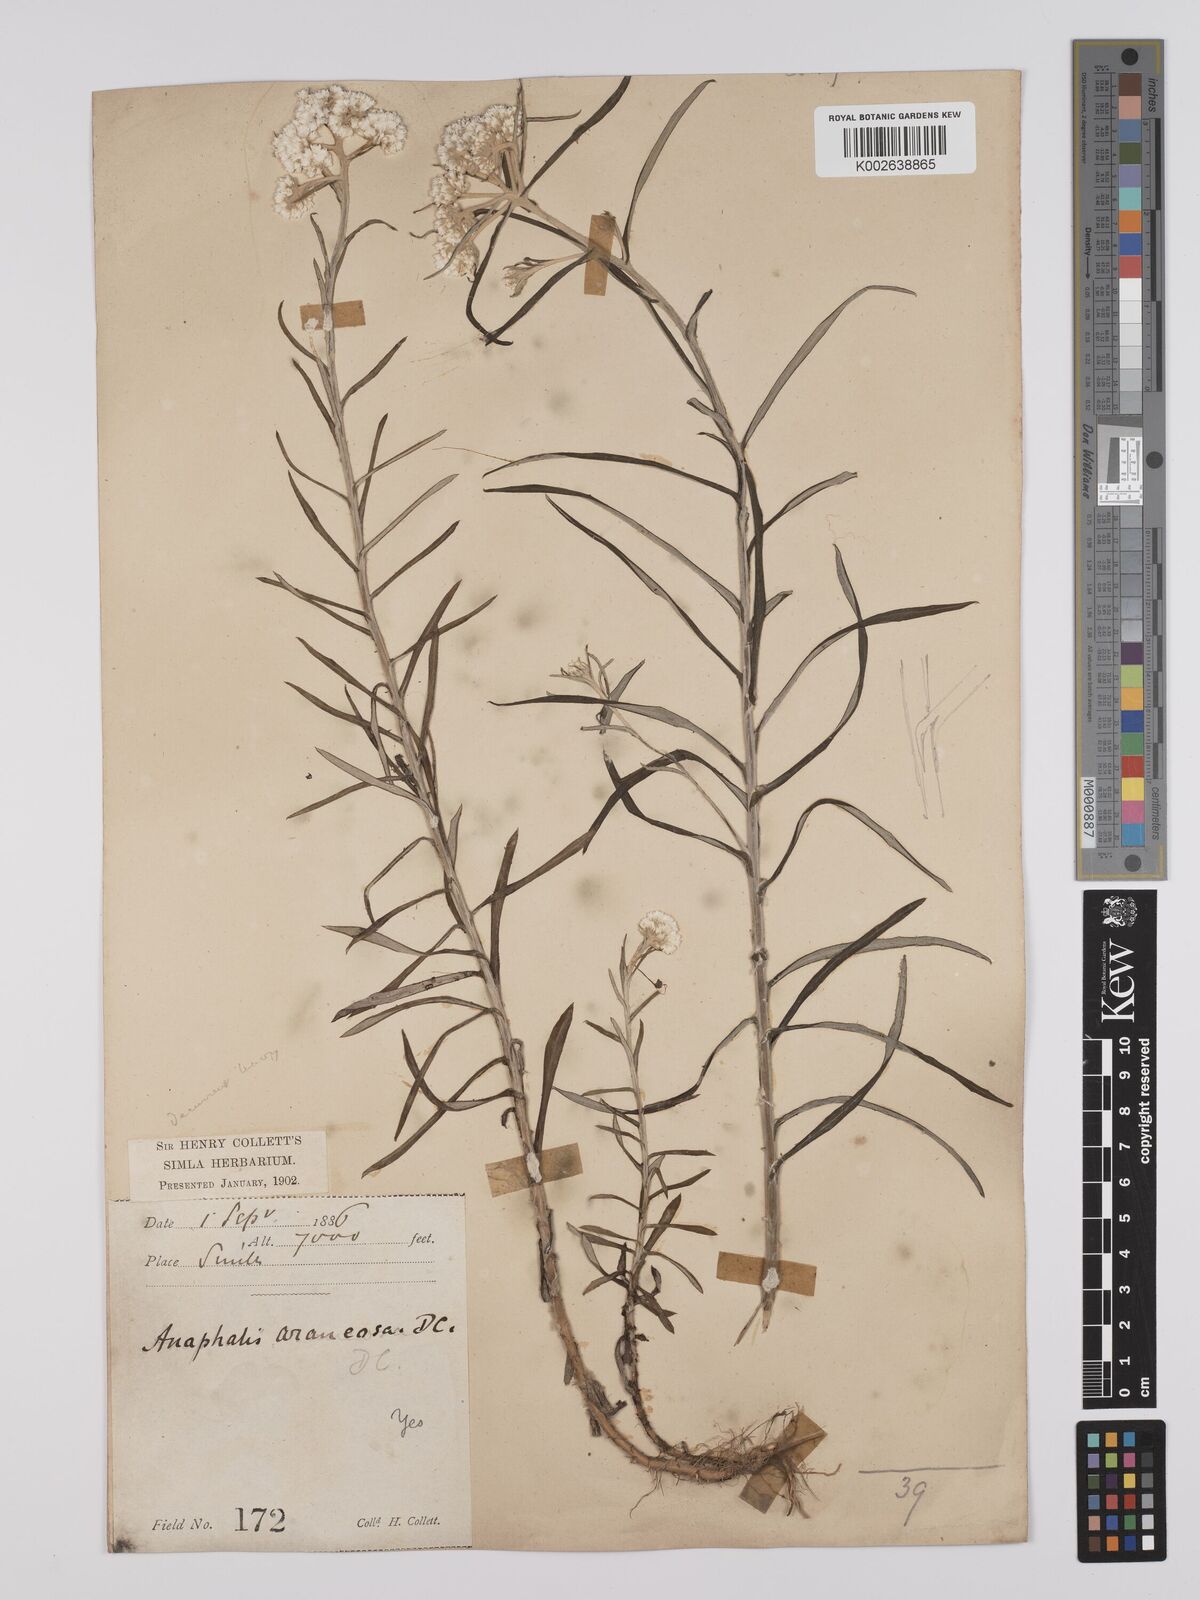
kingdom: Plantae
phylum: Tracheophyta
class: Magnoliopsida
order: Asterales
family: Asteraceae
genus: Anaphalis
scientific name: Anaphalis busua
